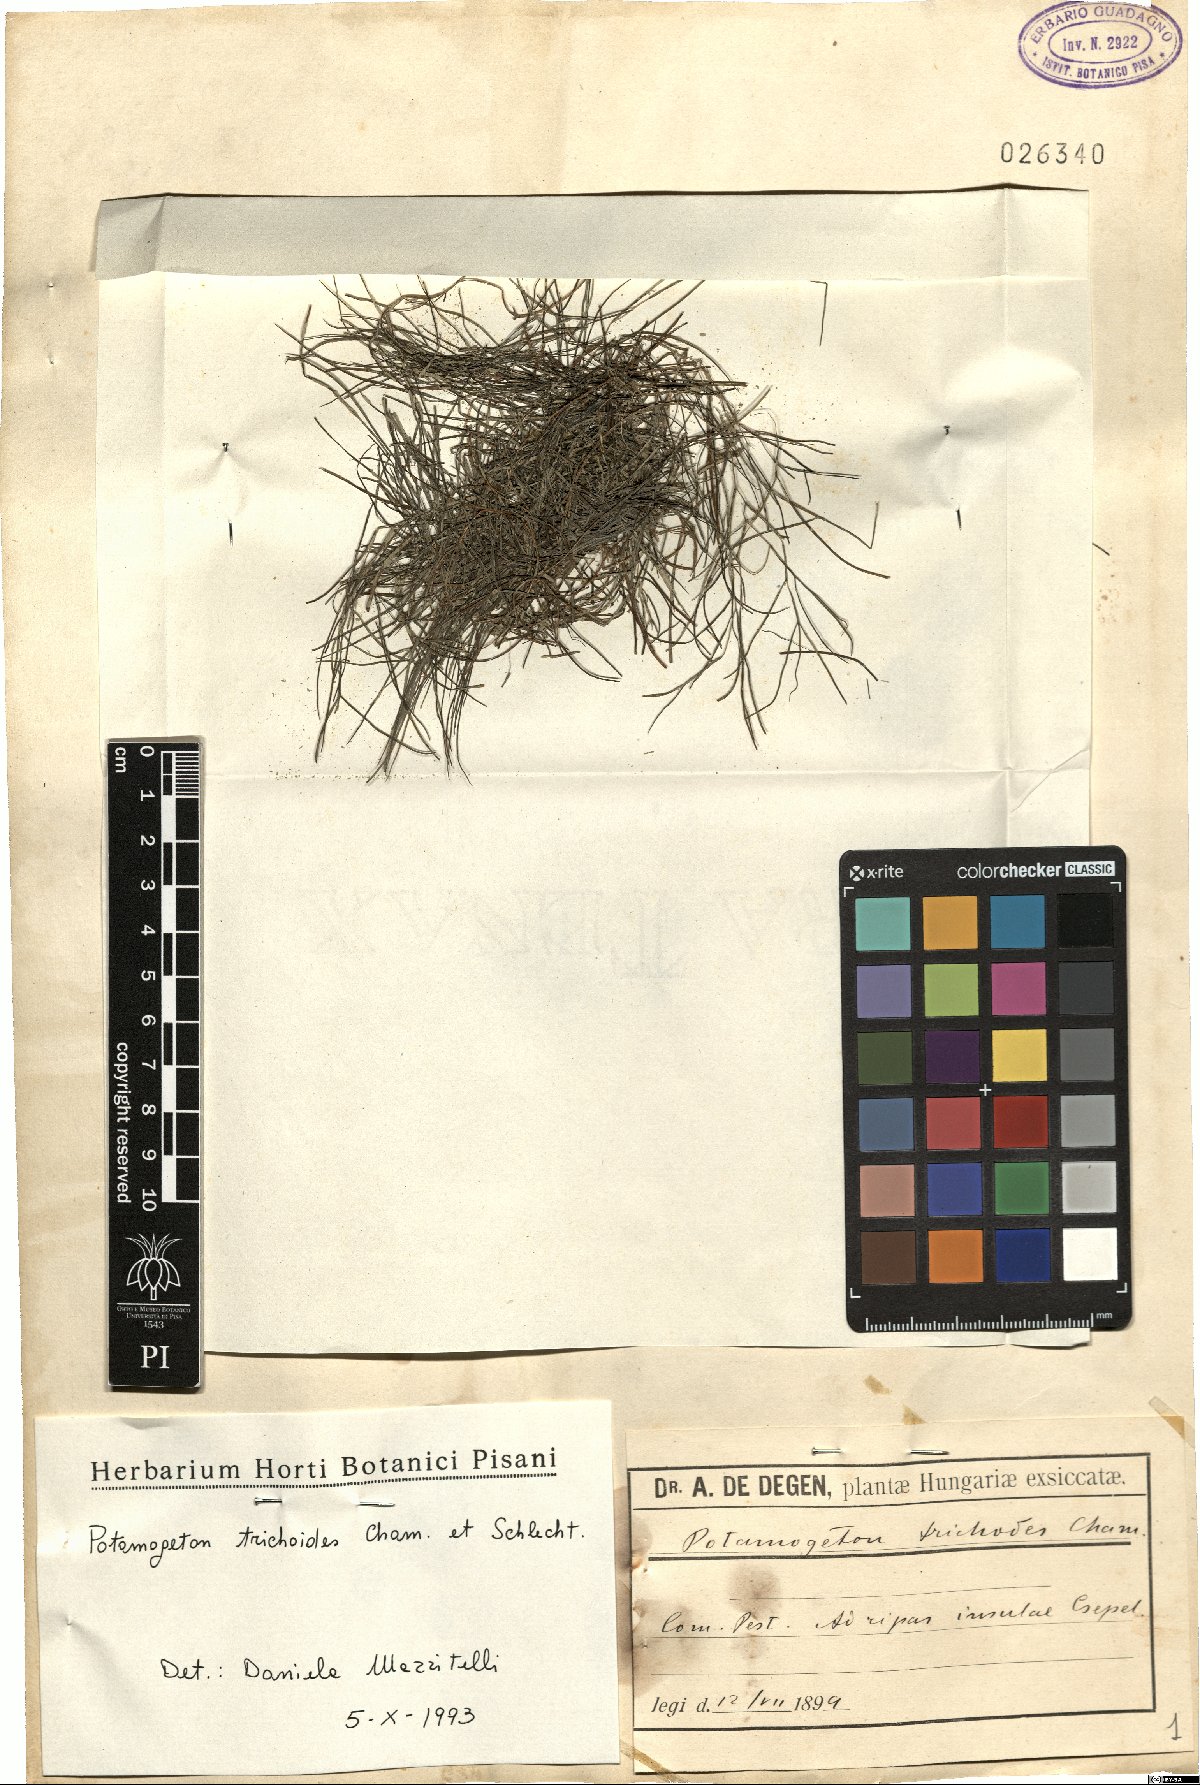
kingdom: Plantae
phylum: Tracheophyta
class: Liliopsida
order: Alismatales
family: Potamogetonaceae
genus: Potamogeton
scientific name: Potamogeton trichoides
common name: Hairlike pondweed
